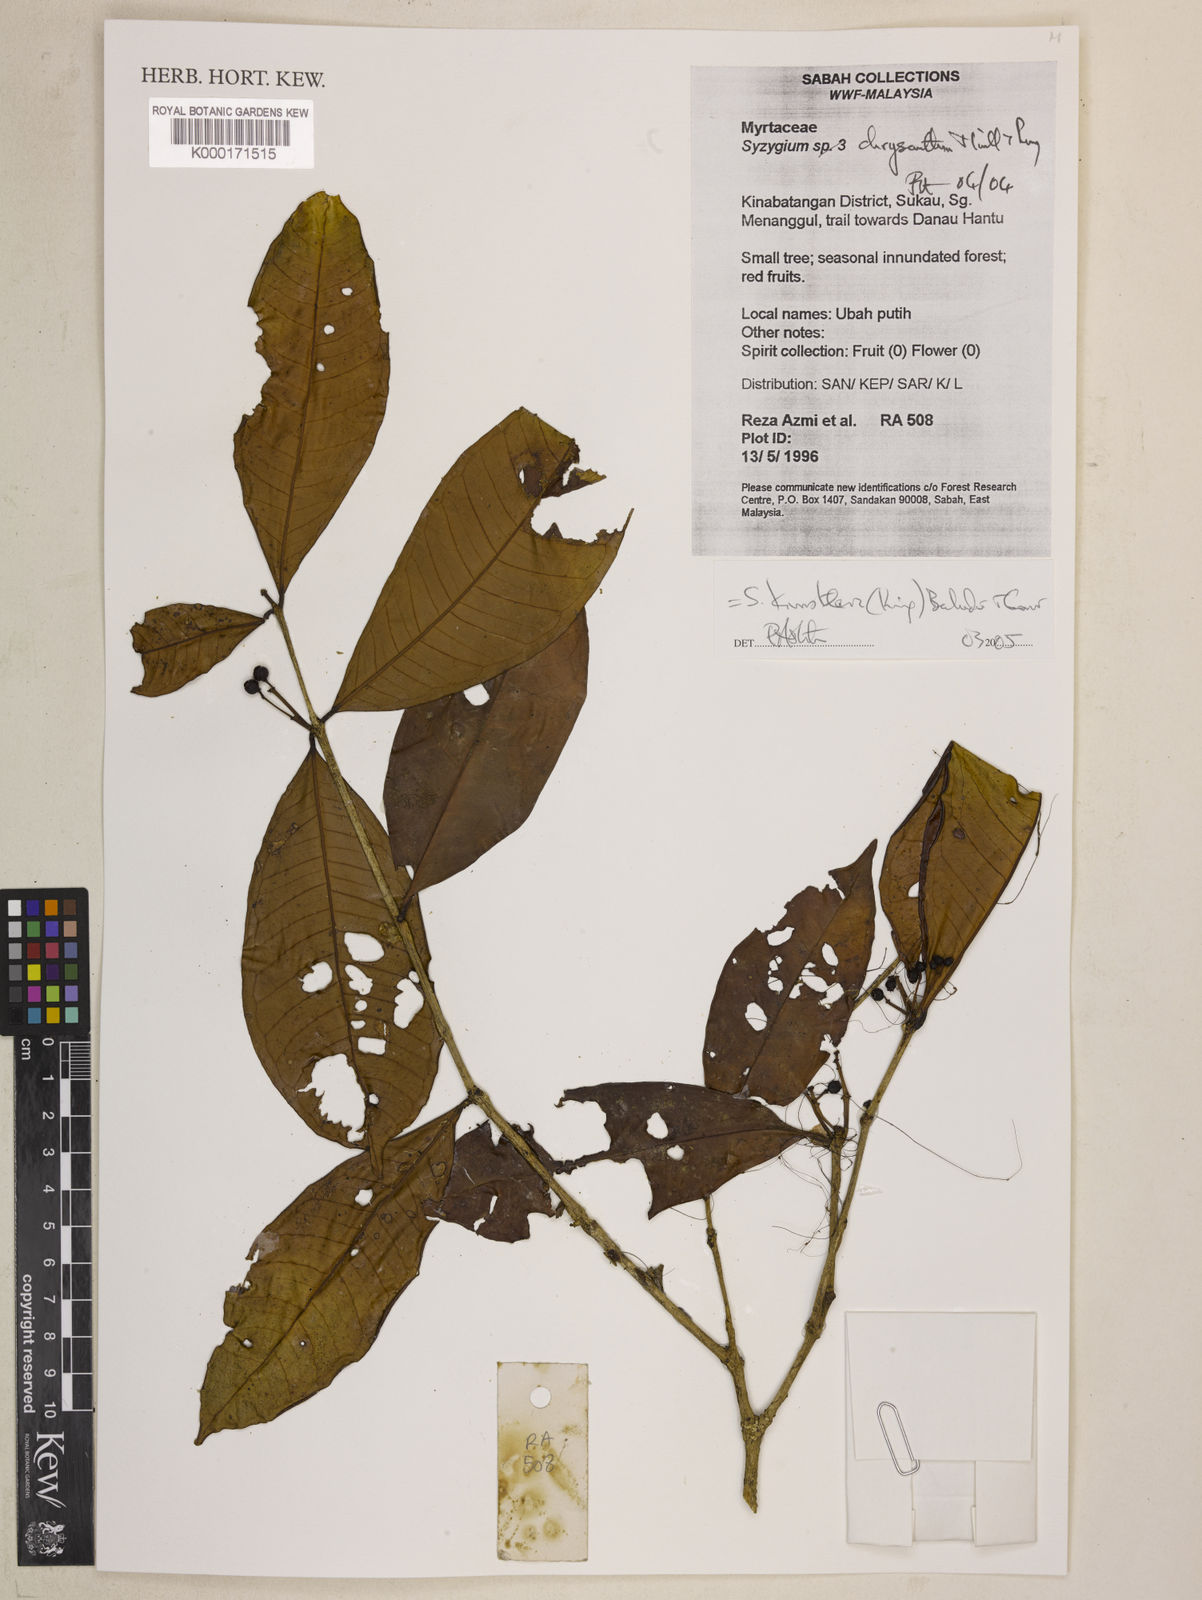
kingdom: Plantae
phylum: Tracheophyta
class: Magnoliopsida
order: Myrtales
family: Myrtaceae
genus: Syzygium
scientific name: Syzygium kunstleri
